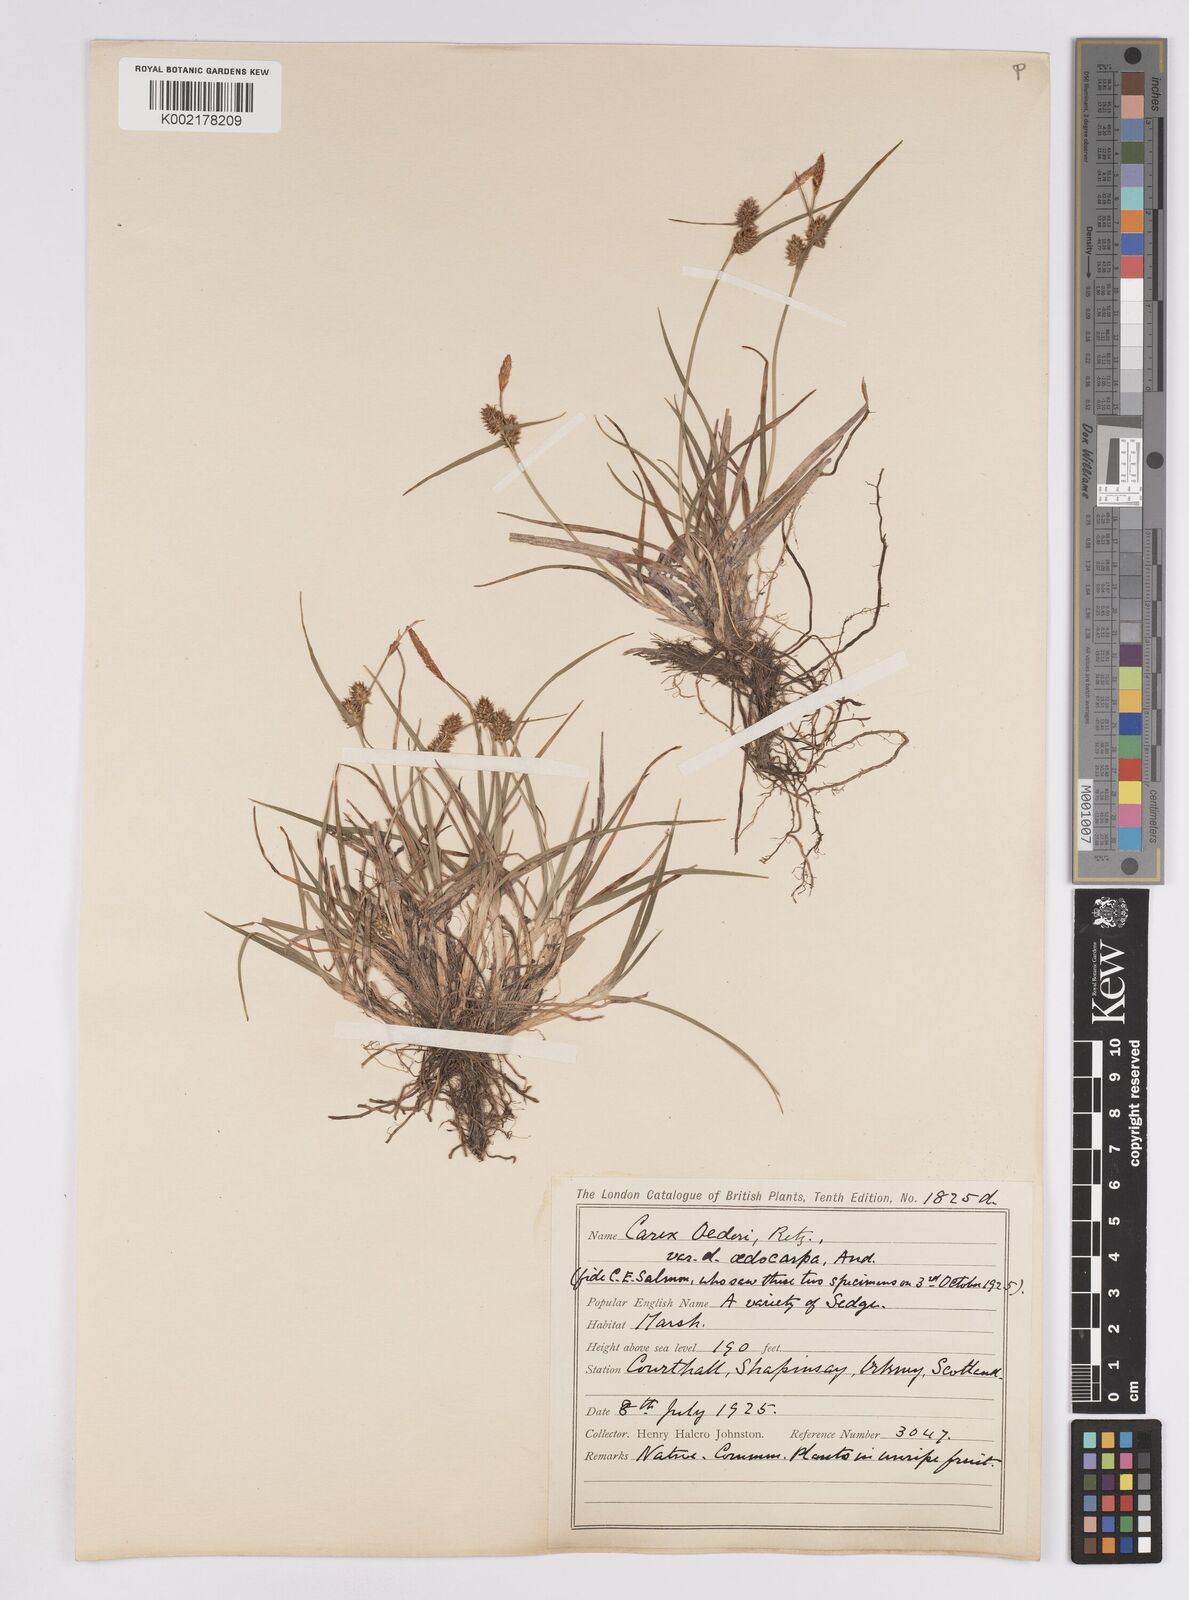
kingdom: Plantae
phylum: Tracheophyta
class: Liliopsida
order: Poales
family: Cyperaceae
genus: Carex
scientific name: Carex demissa
